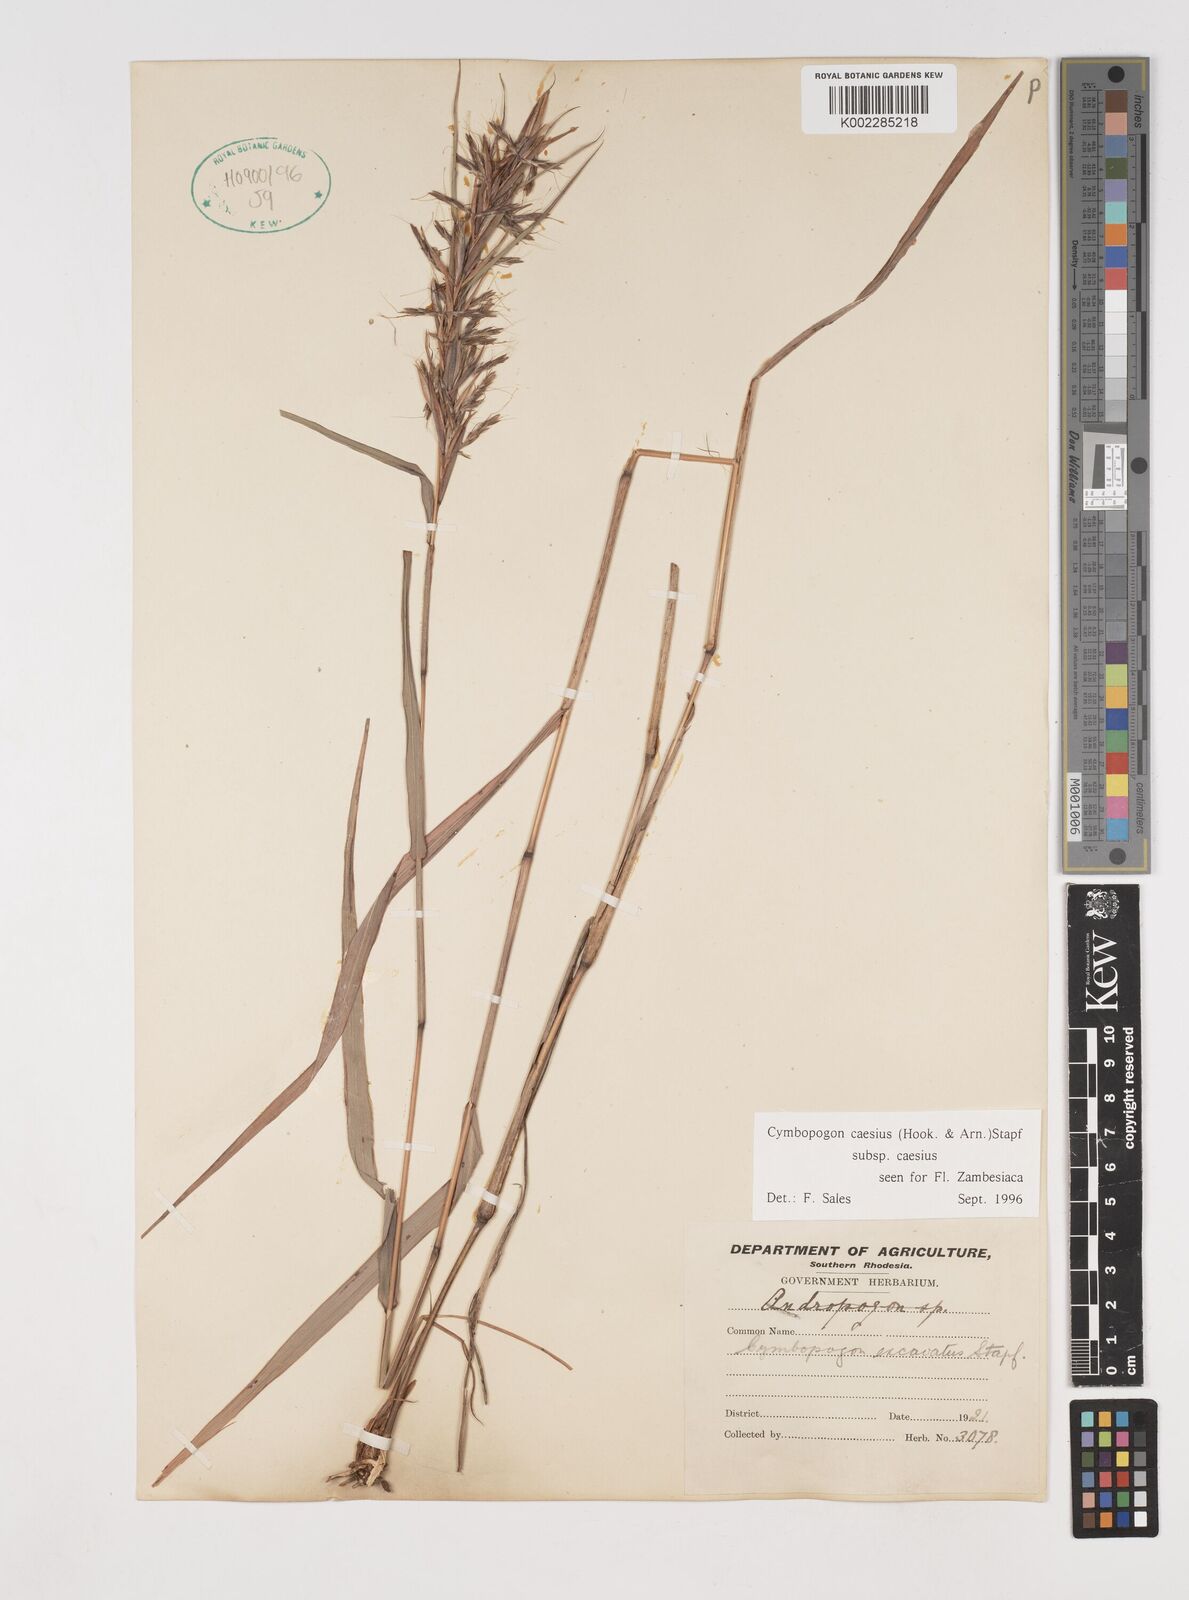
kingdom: Plantae
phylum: Tracheophyta
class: Liliopsida
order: Poales
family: Poaceae
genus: Cymbopogon
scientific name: Cymbopogon caesius
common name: Kachi grass
